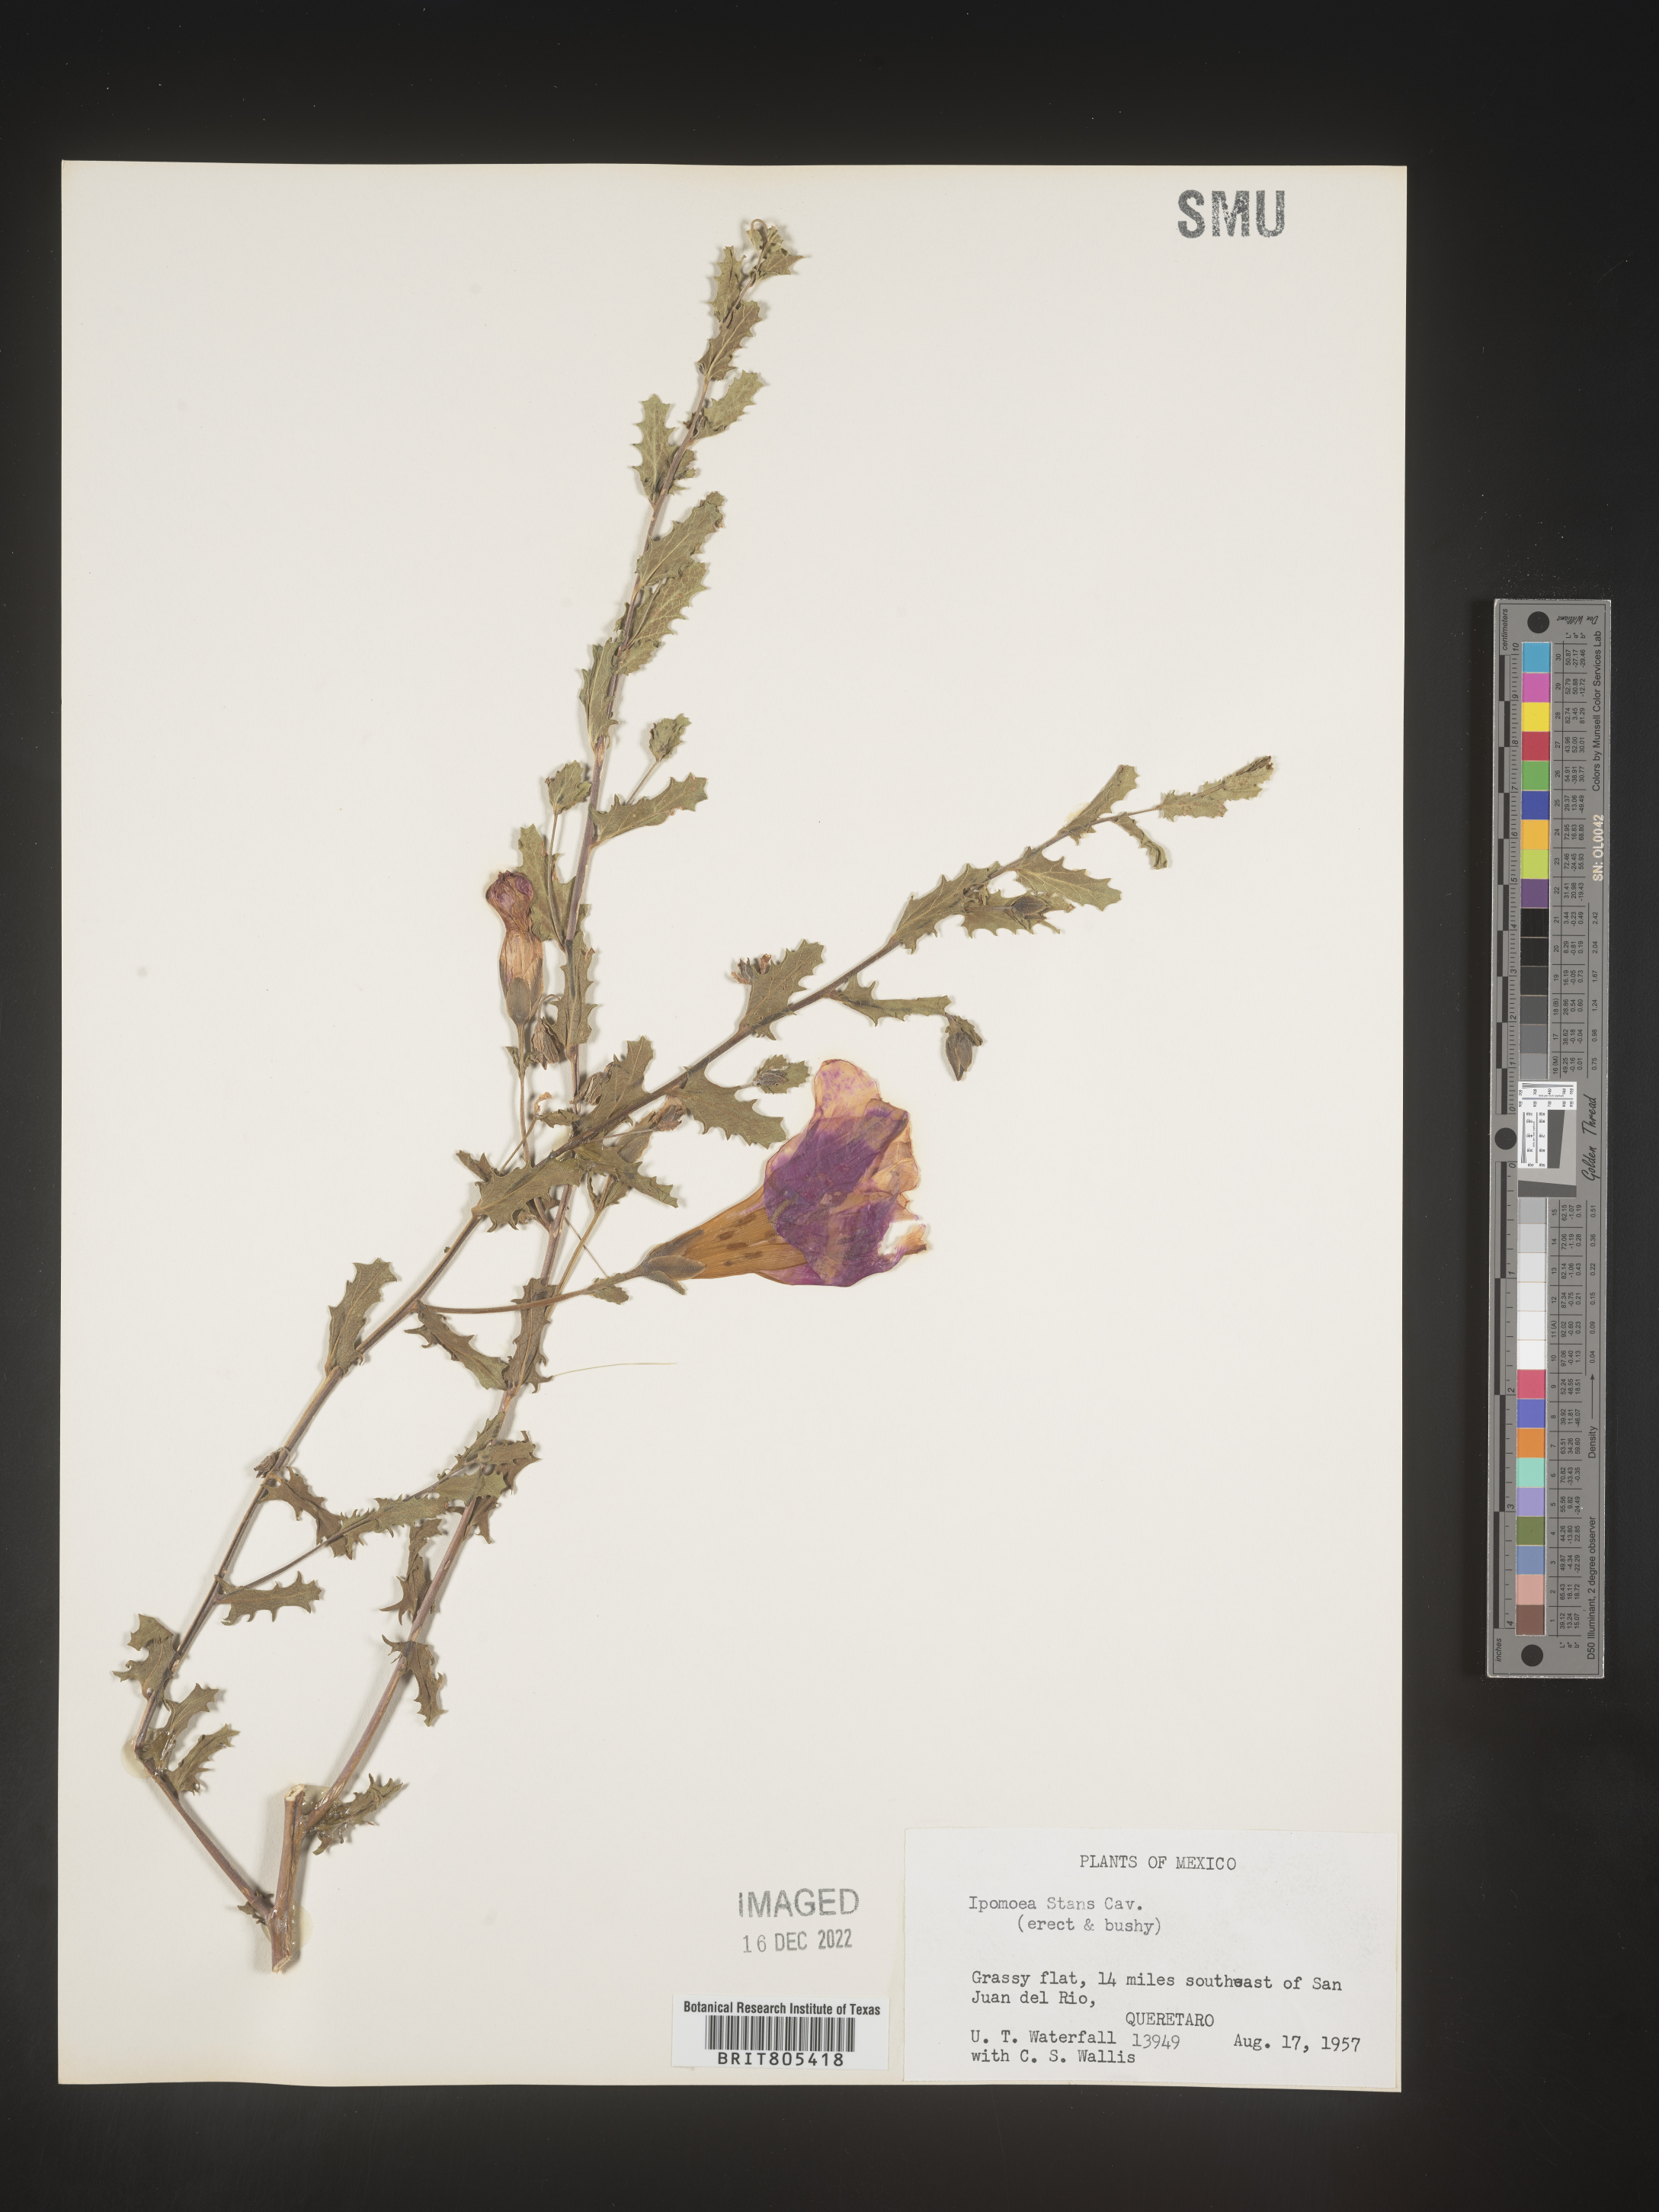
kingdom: Plantae
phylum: Tracheophyta
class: Magnoliopsida
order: Solanales
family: Convolvulaceae
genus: Ipomoea
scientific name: Ipomoea
